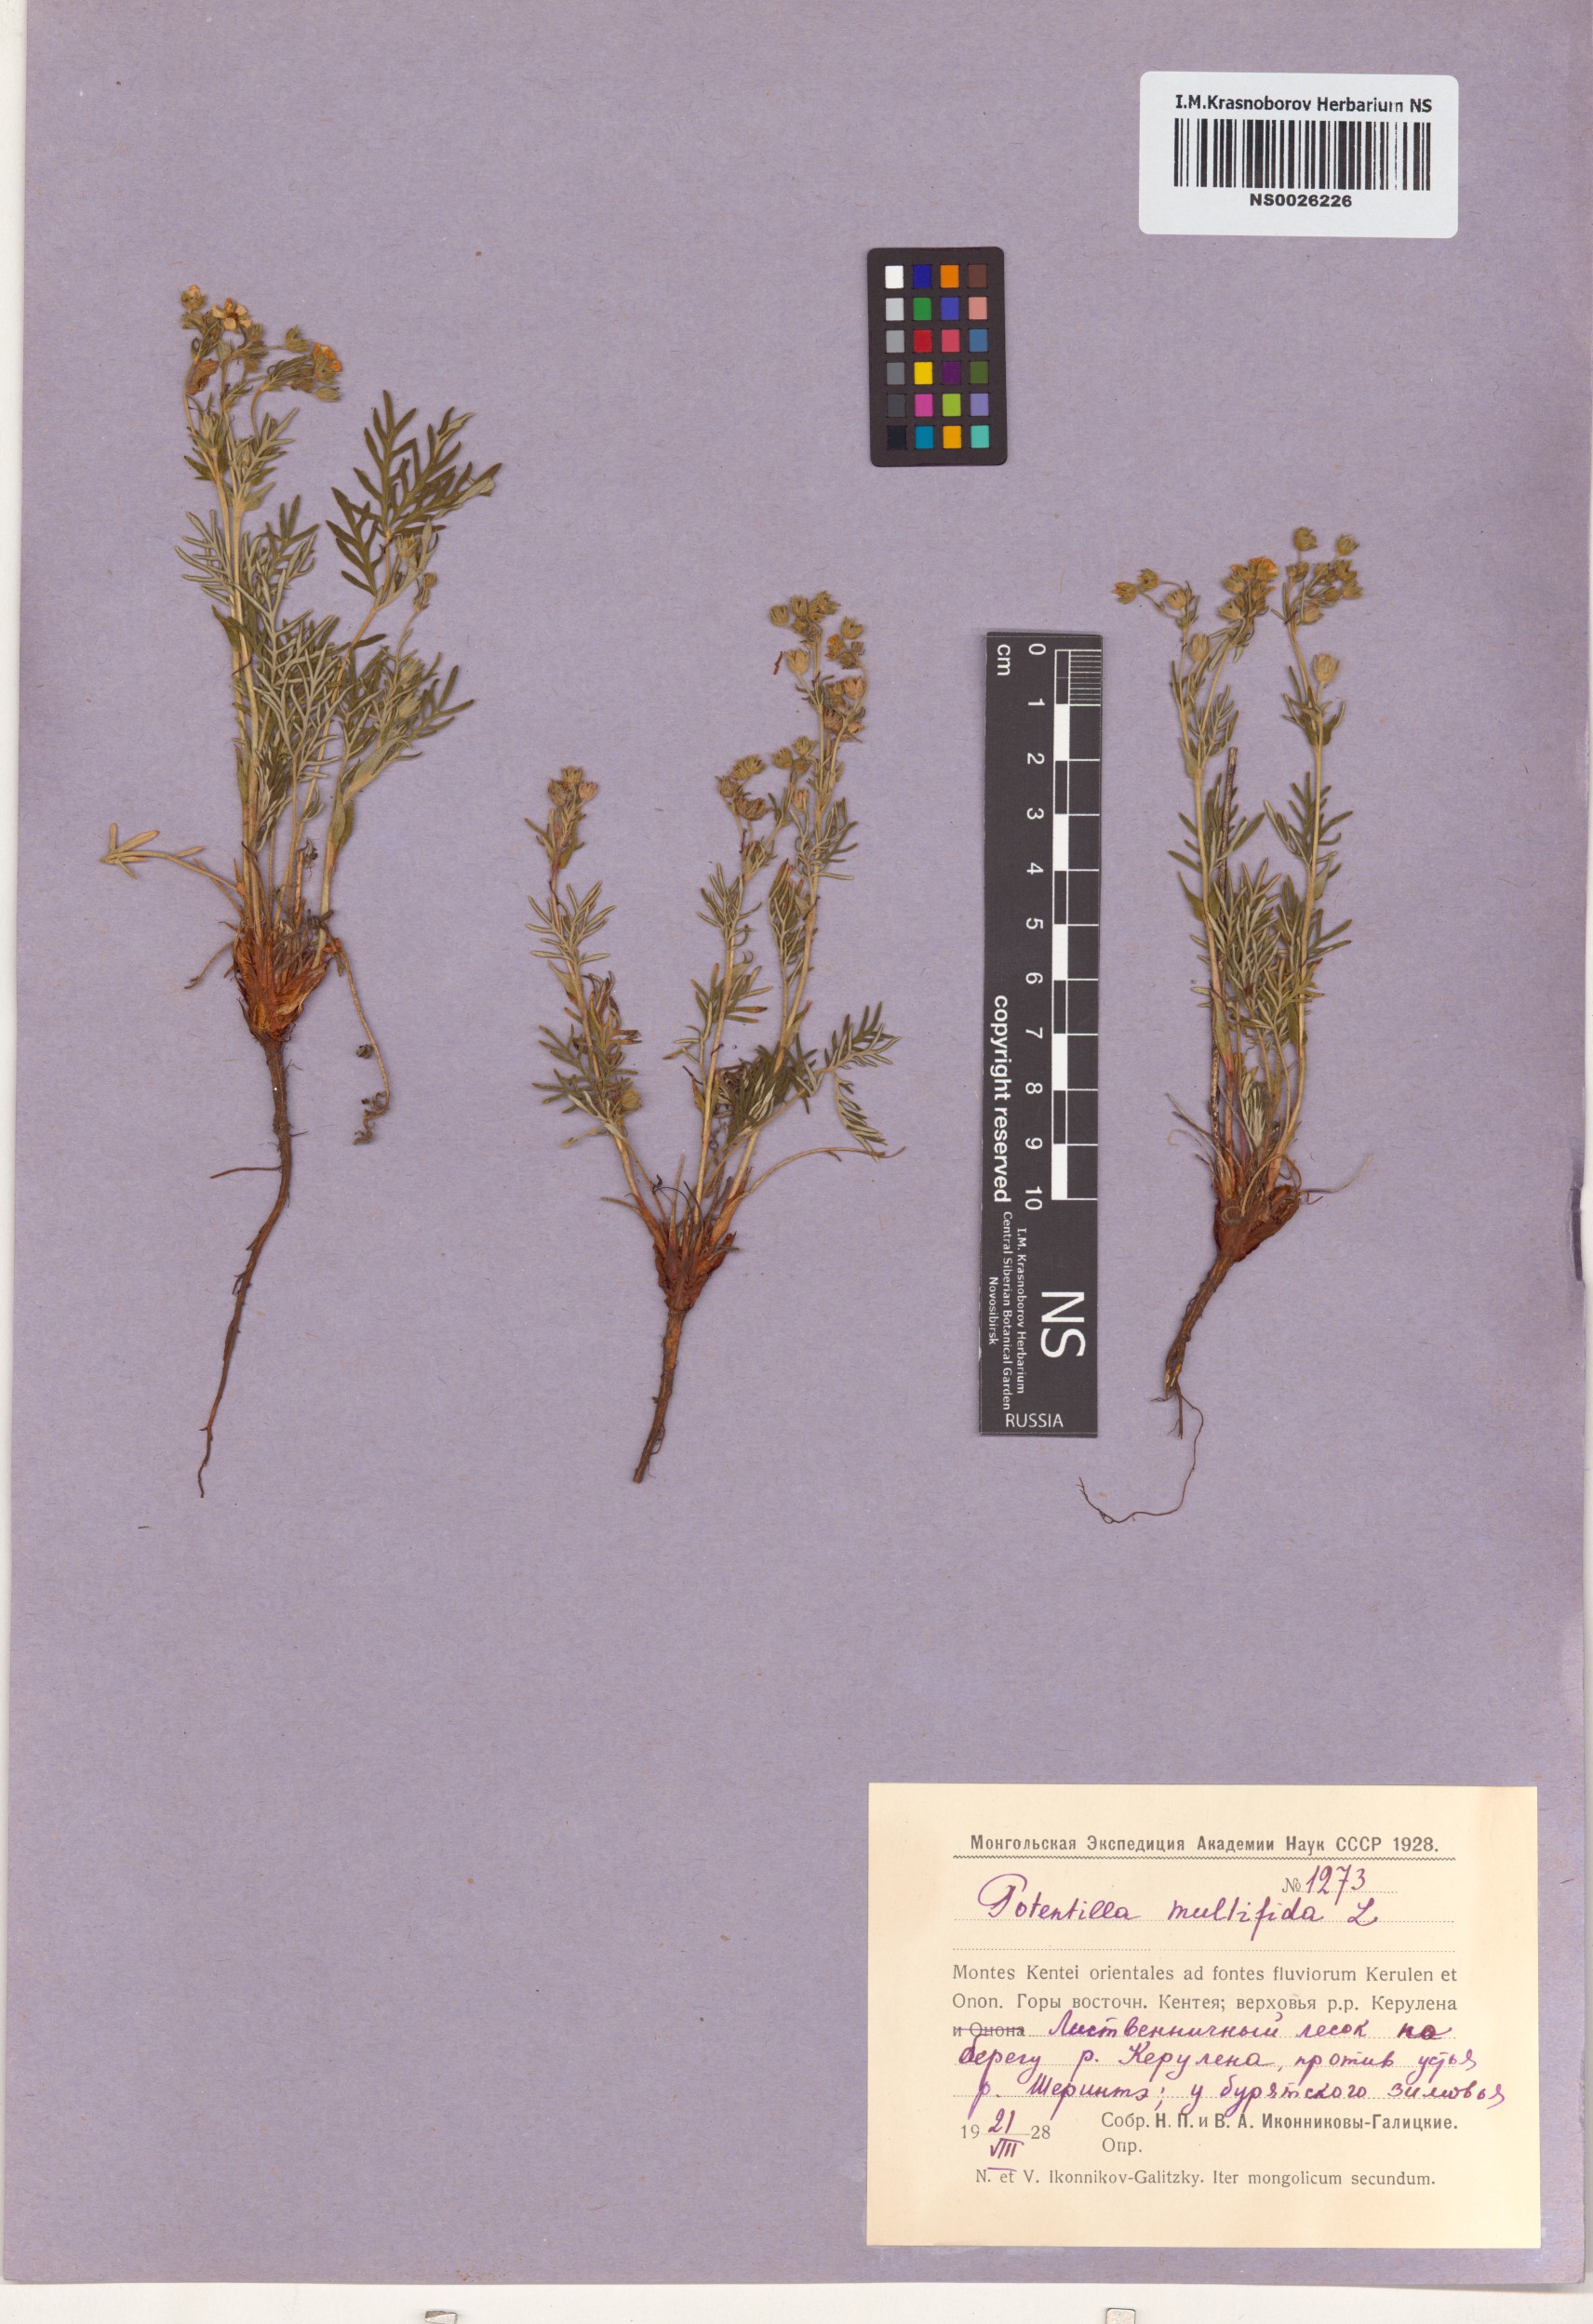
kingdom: Plantae
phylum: Tracheophyta
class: Magnoliopsida
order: Rosales
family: Rosaceae
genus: Potentilla
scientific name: Potentilla multifida
